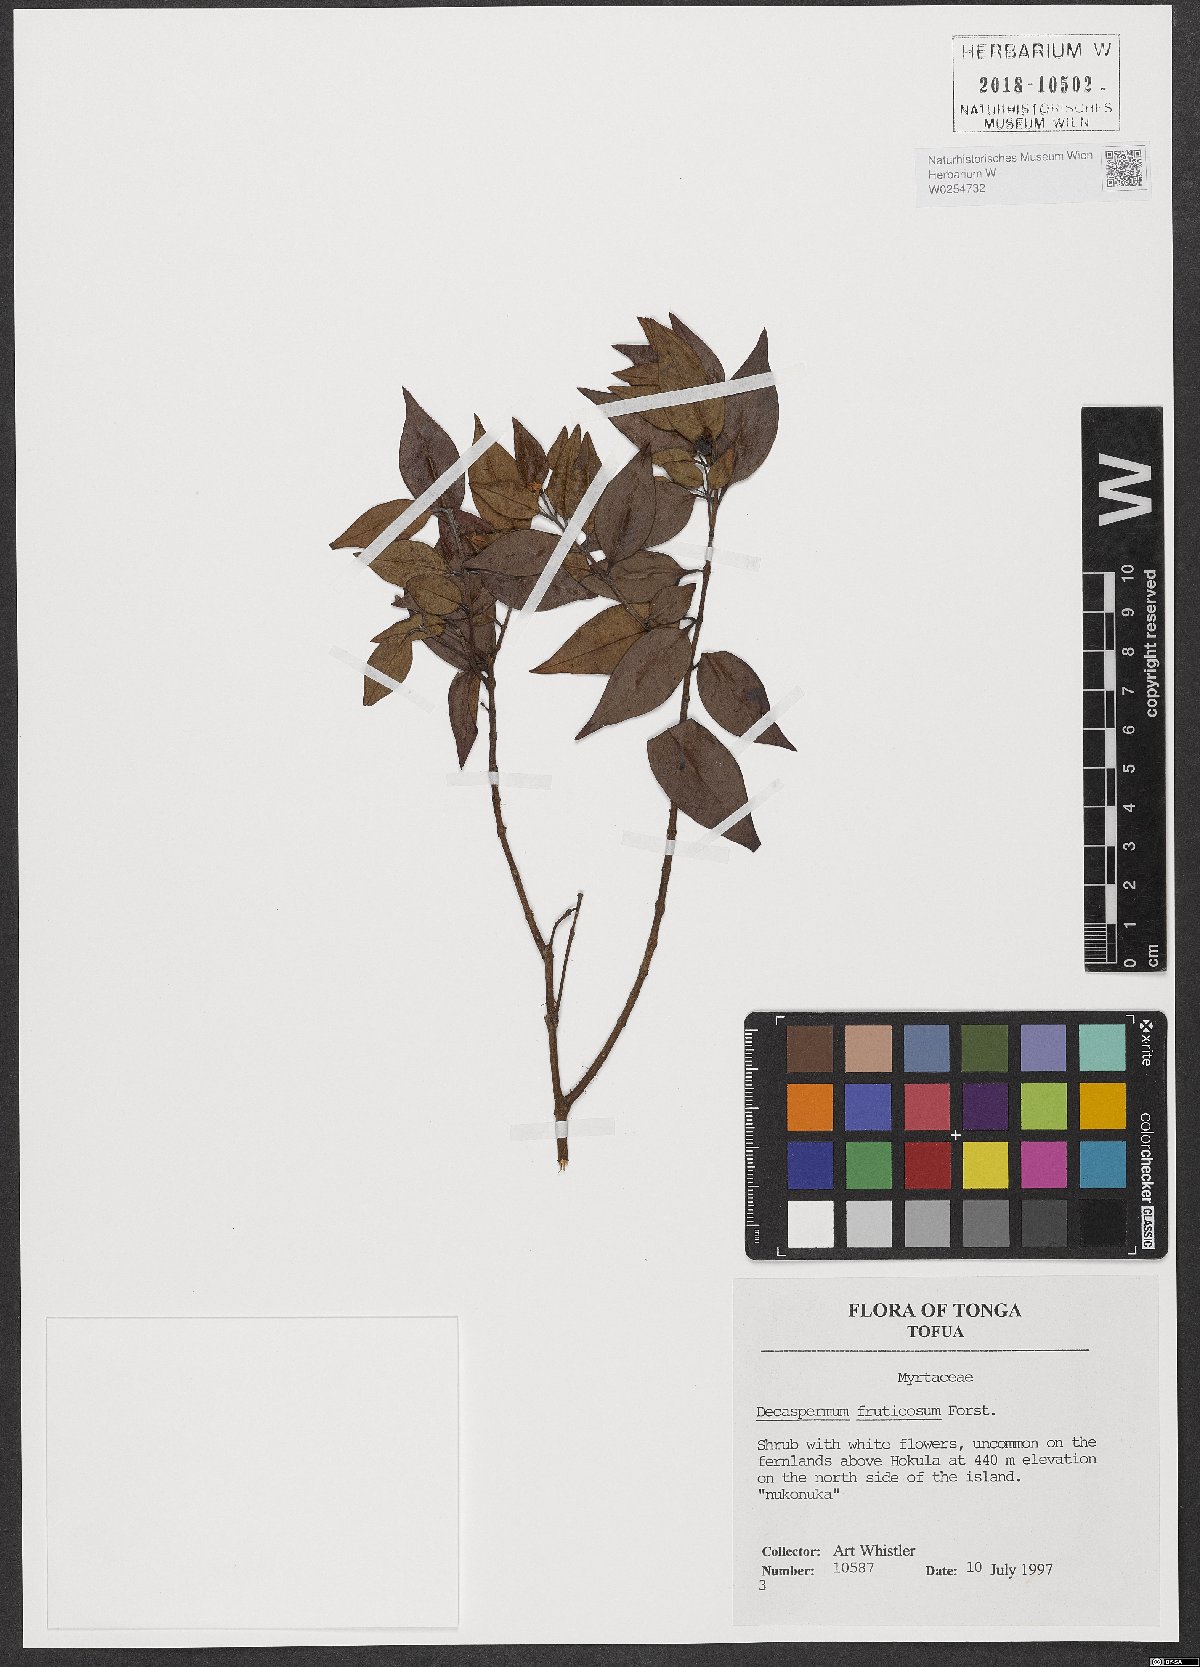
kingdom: Plantae
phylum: Tracheophyta
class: Magnoliopsida
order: Myrtales
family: Myrtaceae
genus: Decaspermum
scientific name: Decaspermum fruticosum
